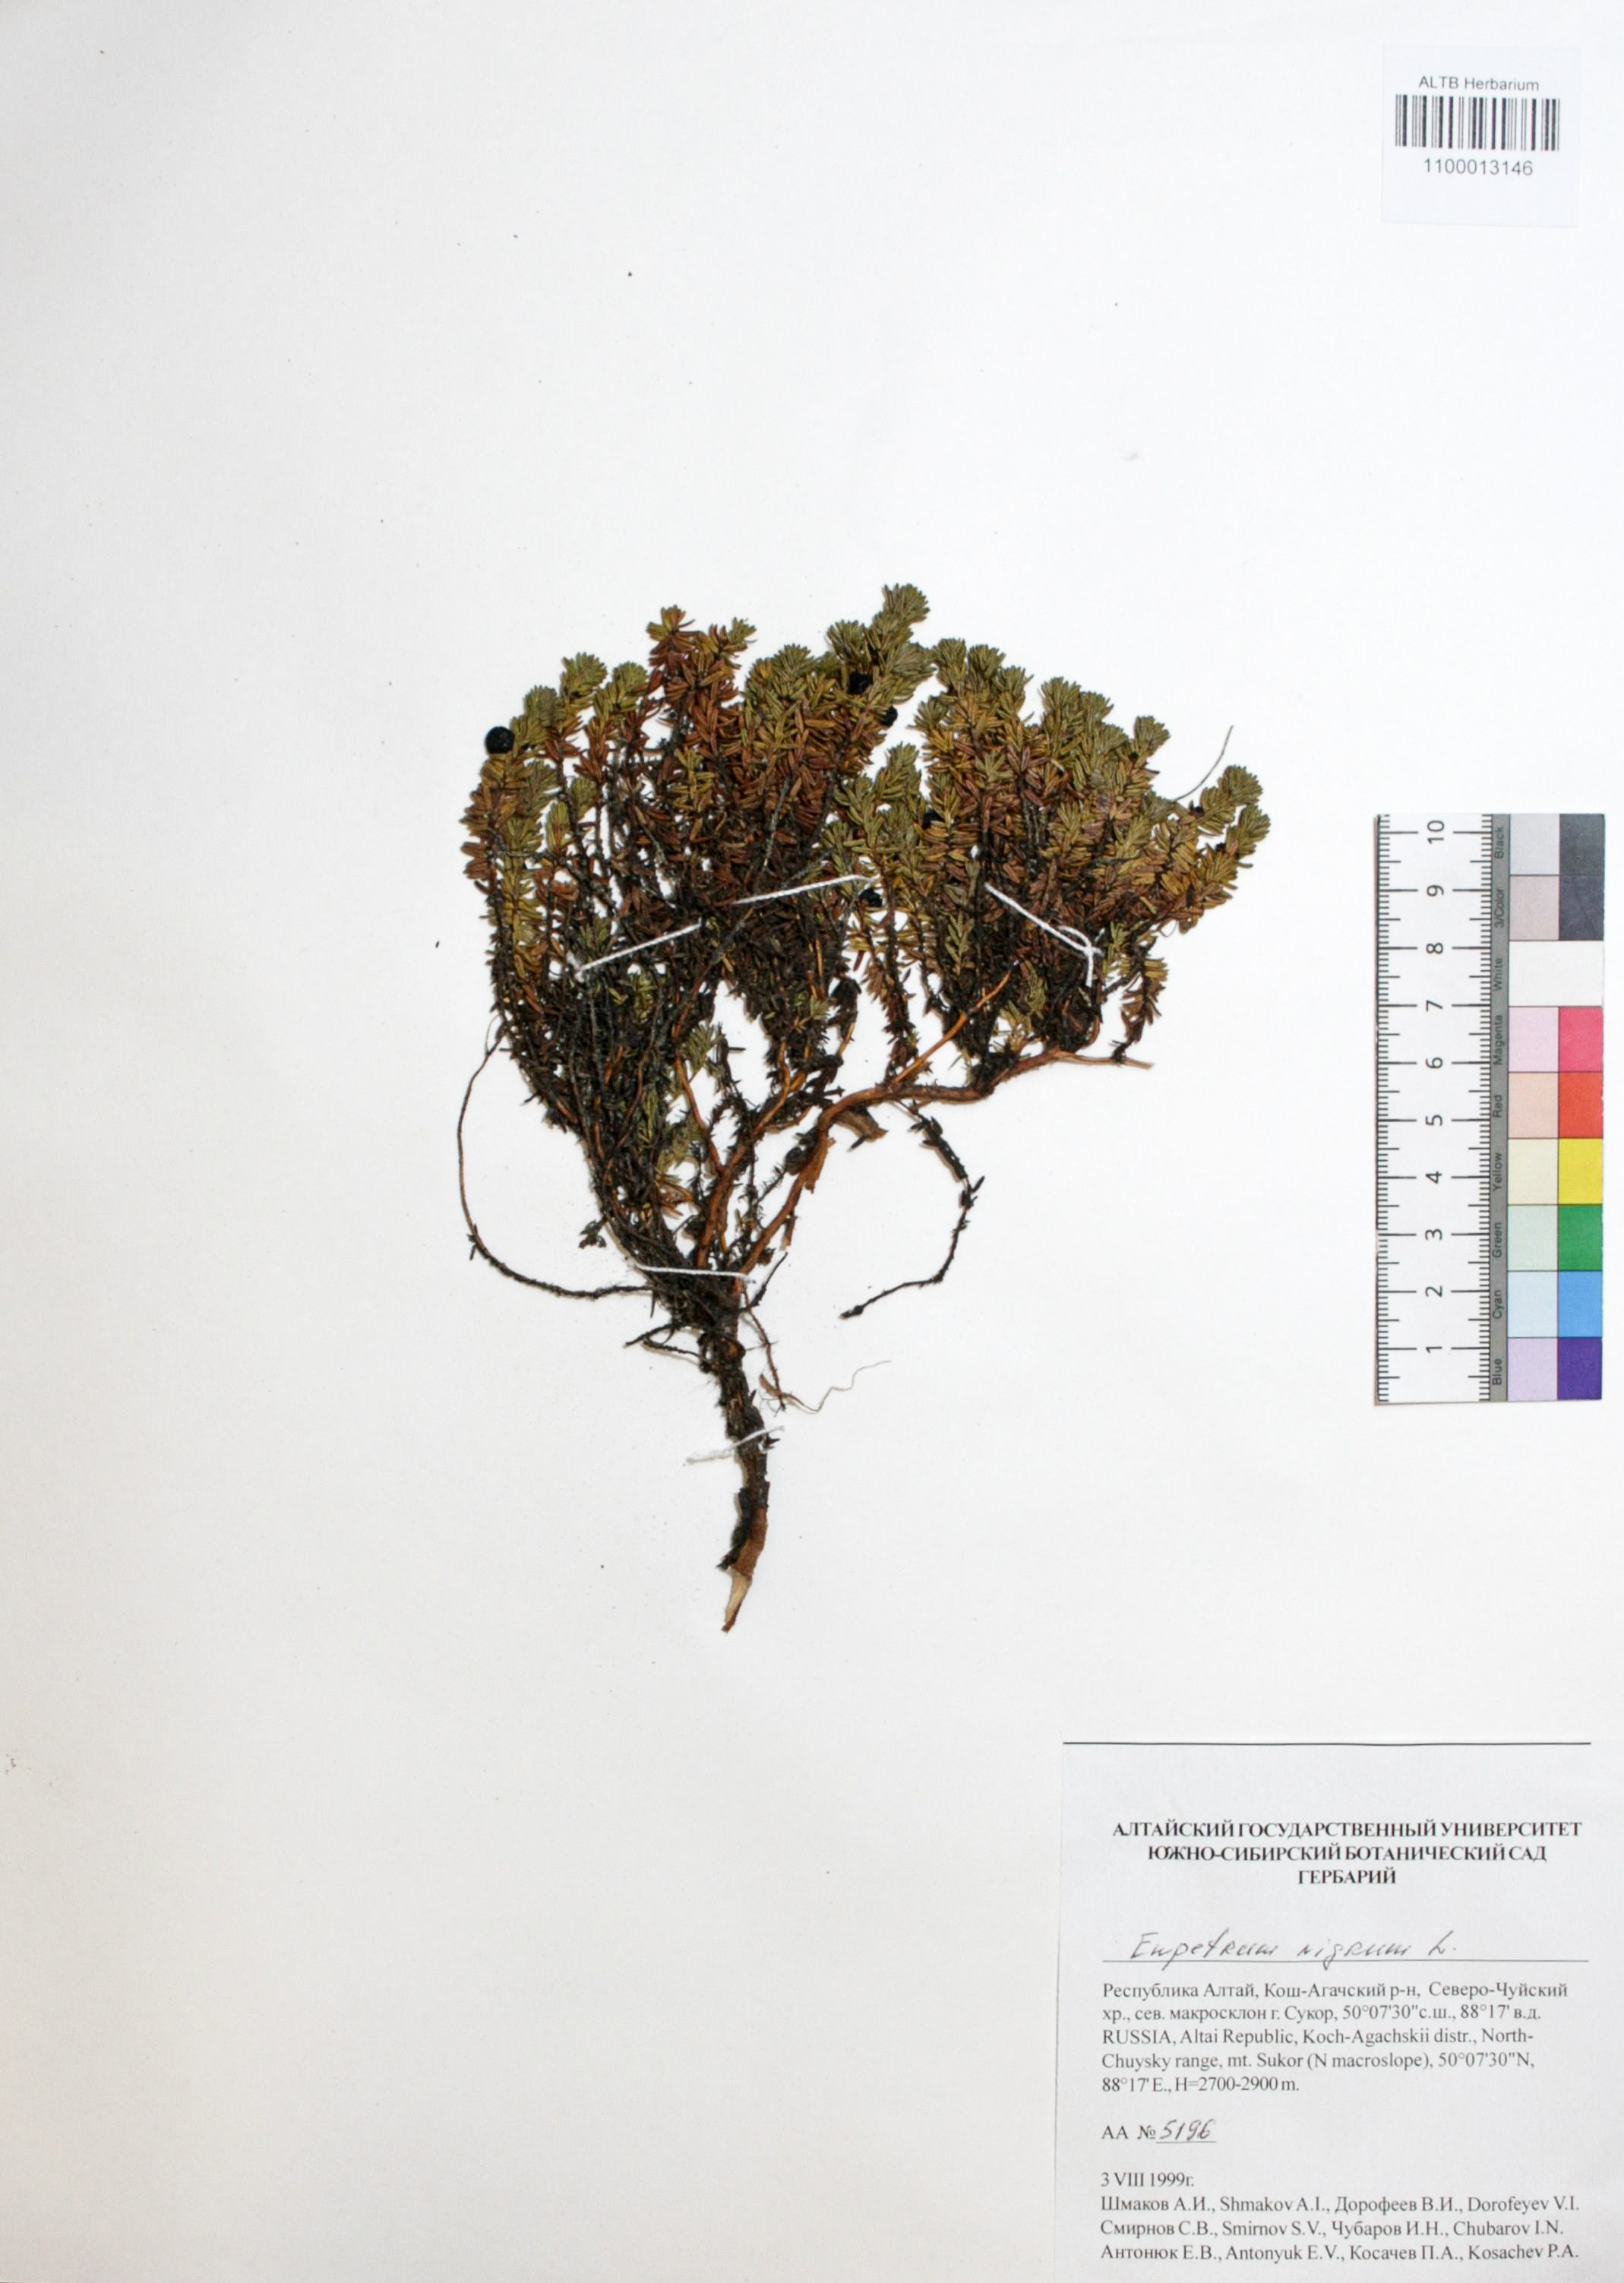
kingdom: Plantae
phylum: Tracheophyta
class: Magnoliopsida
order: Ericales
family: Ericaceae
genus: Empetrum
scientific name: Empetrum nigrum
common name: Black crowberry
